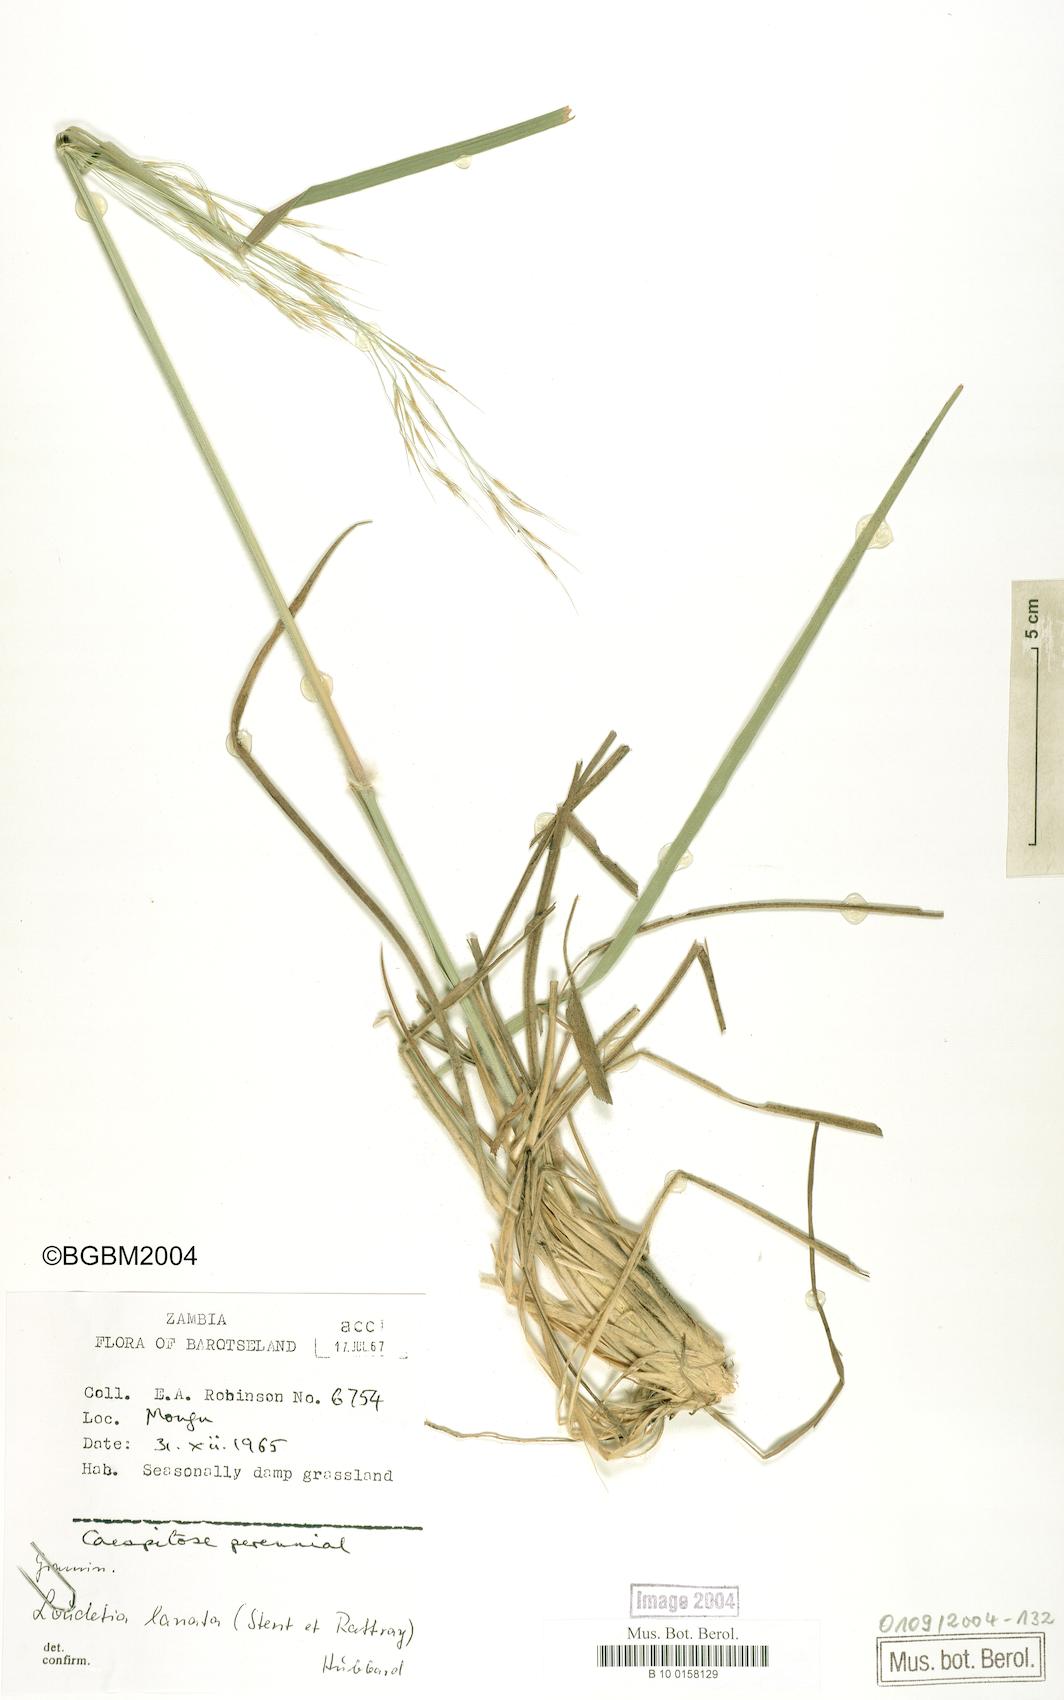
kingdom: Plantae
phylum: Tracheophyta
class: Liliopsida
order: Poales
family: Poaceae
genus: Loudetia
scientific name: Loudetia lanata
